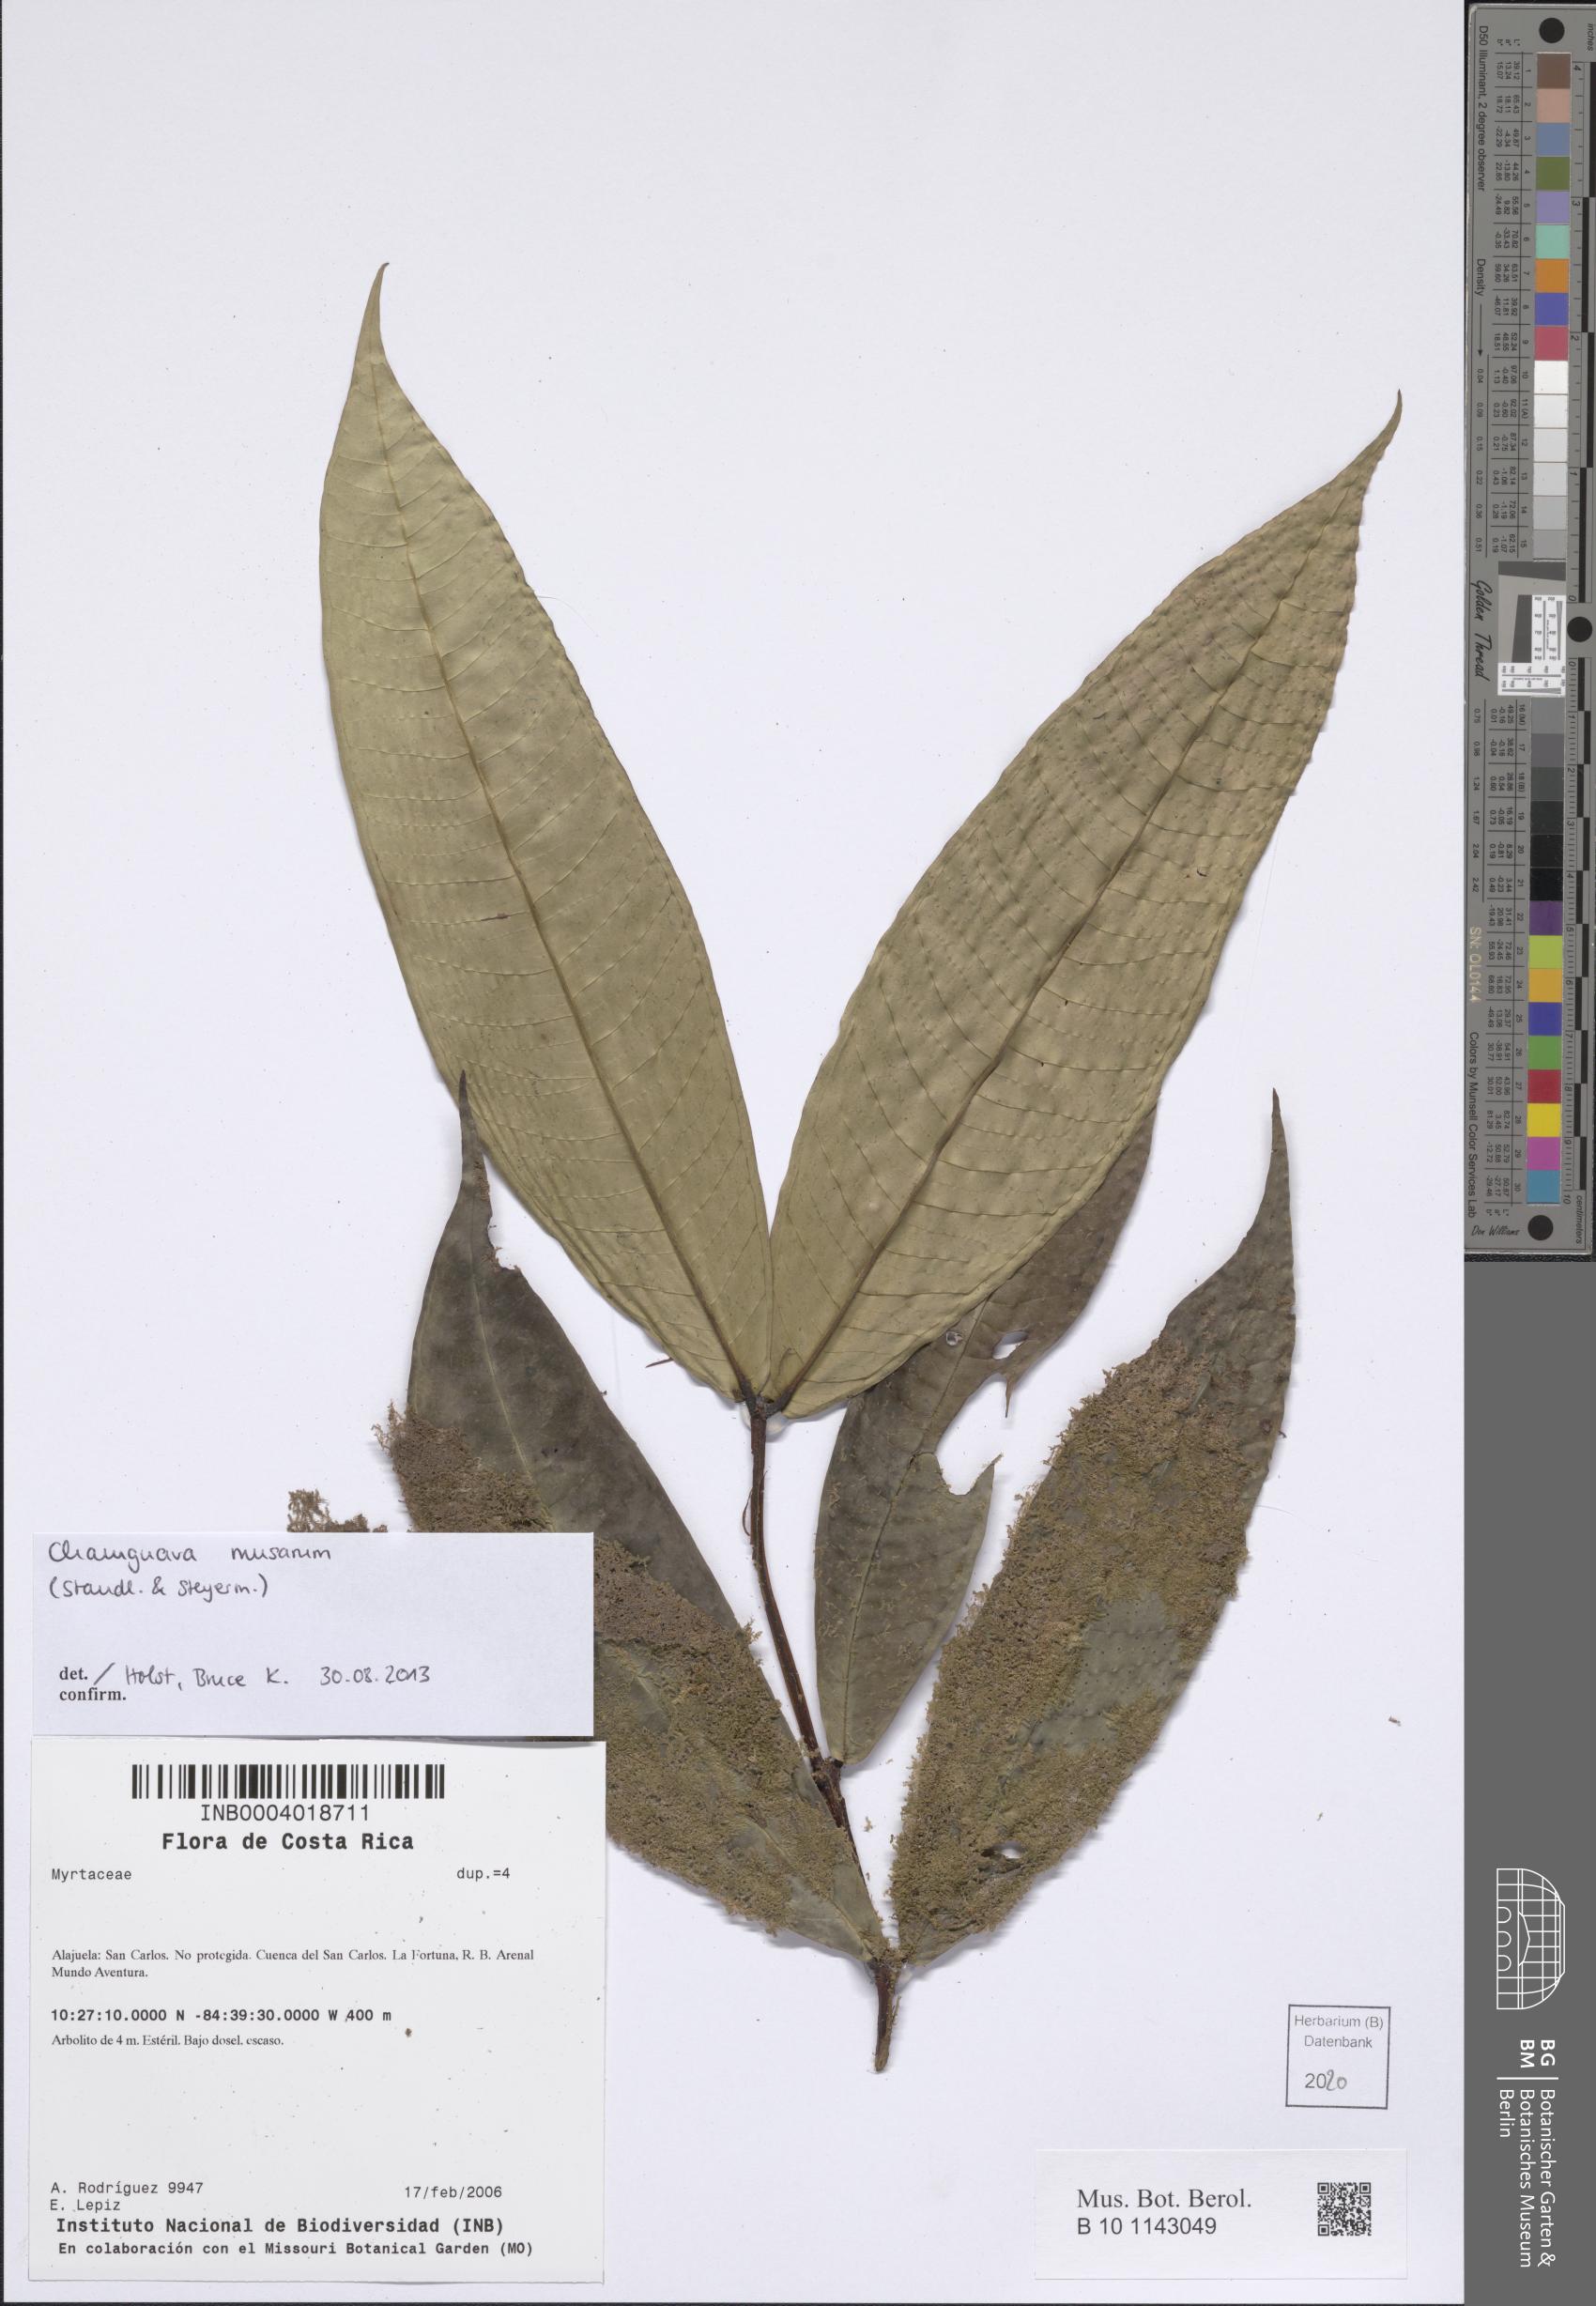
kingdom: Plantae
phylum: Tracheophyta
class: Magnoliopsida
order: Myrtales
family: Myrtaceae
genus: Chamguava
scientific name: Chamguava musarum
